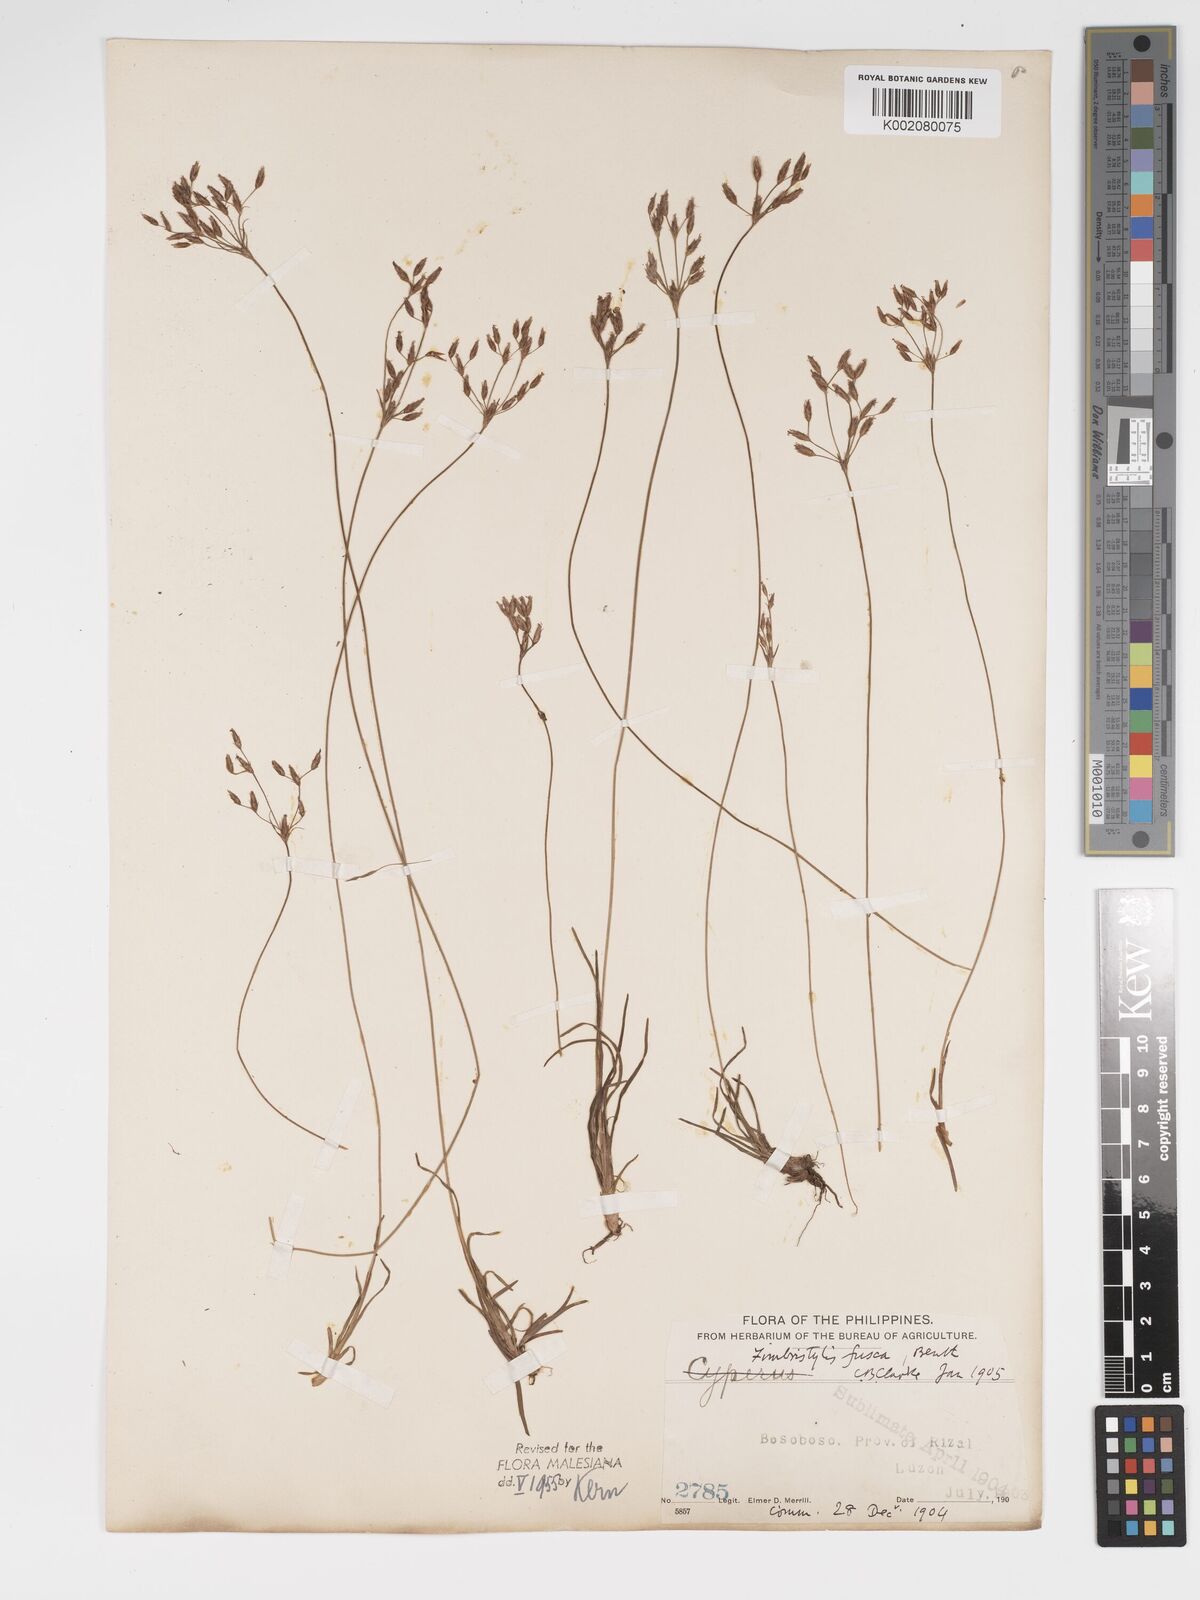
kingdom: Plantae
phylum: Tracheophyta
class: Liliopsida
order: Poales
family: Cyperaceae
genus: Fimbristylis
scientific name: Fimbristylis fusca
